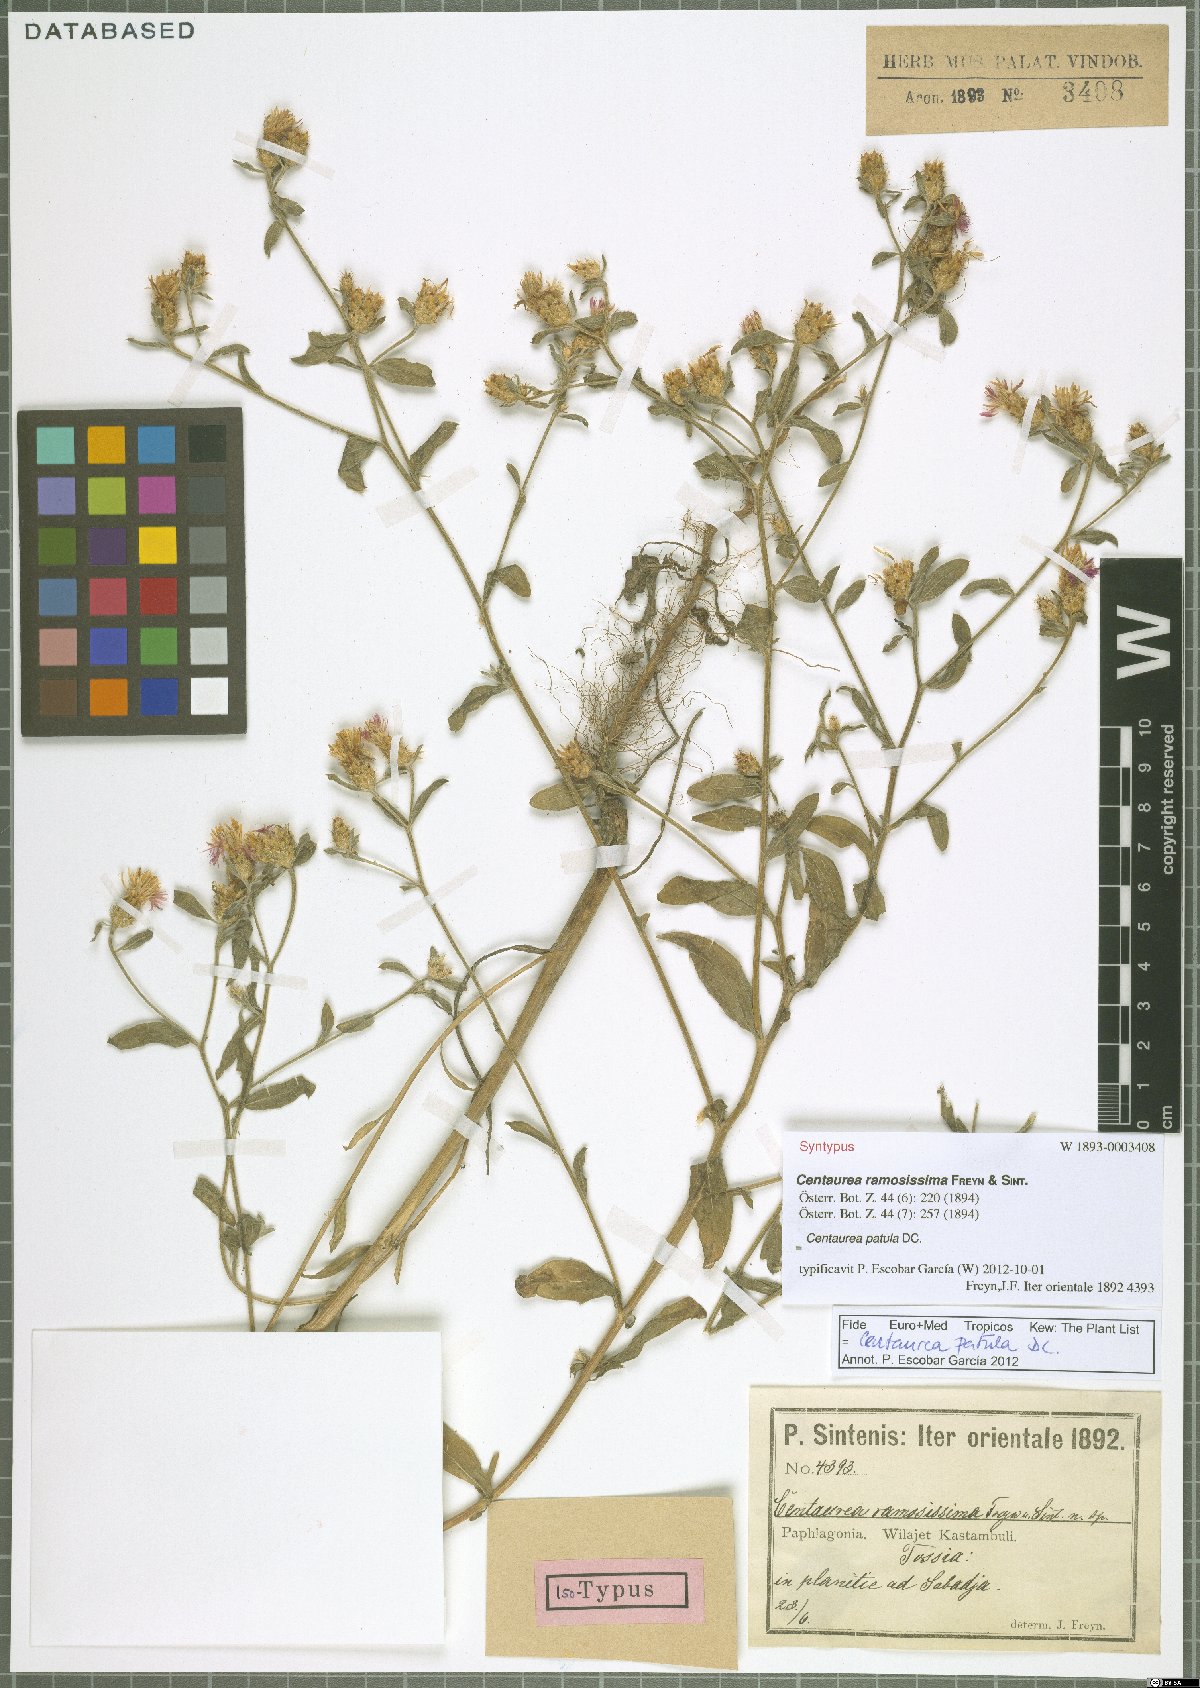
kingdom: Plantae
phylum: Tracheophyta
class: Magnoliopsida
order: Asterales
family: Asteraceae
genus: Centaurea
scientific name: Centaurea patula
